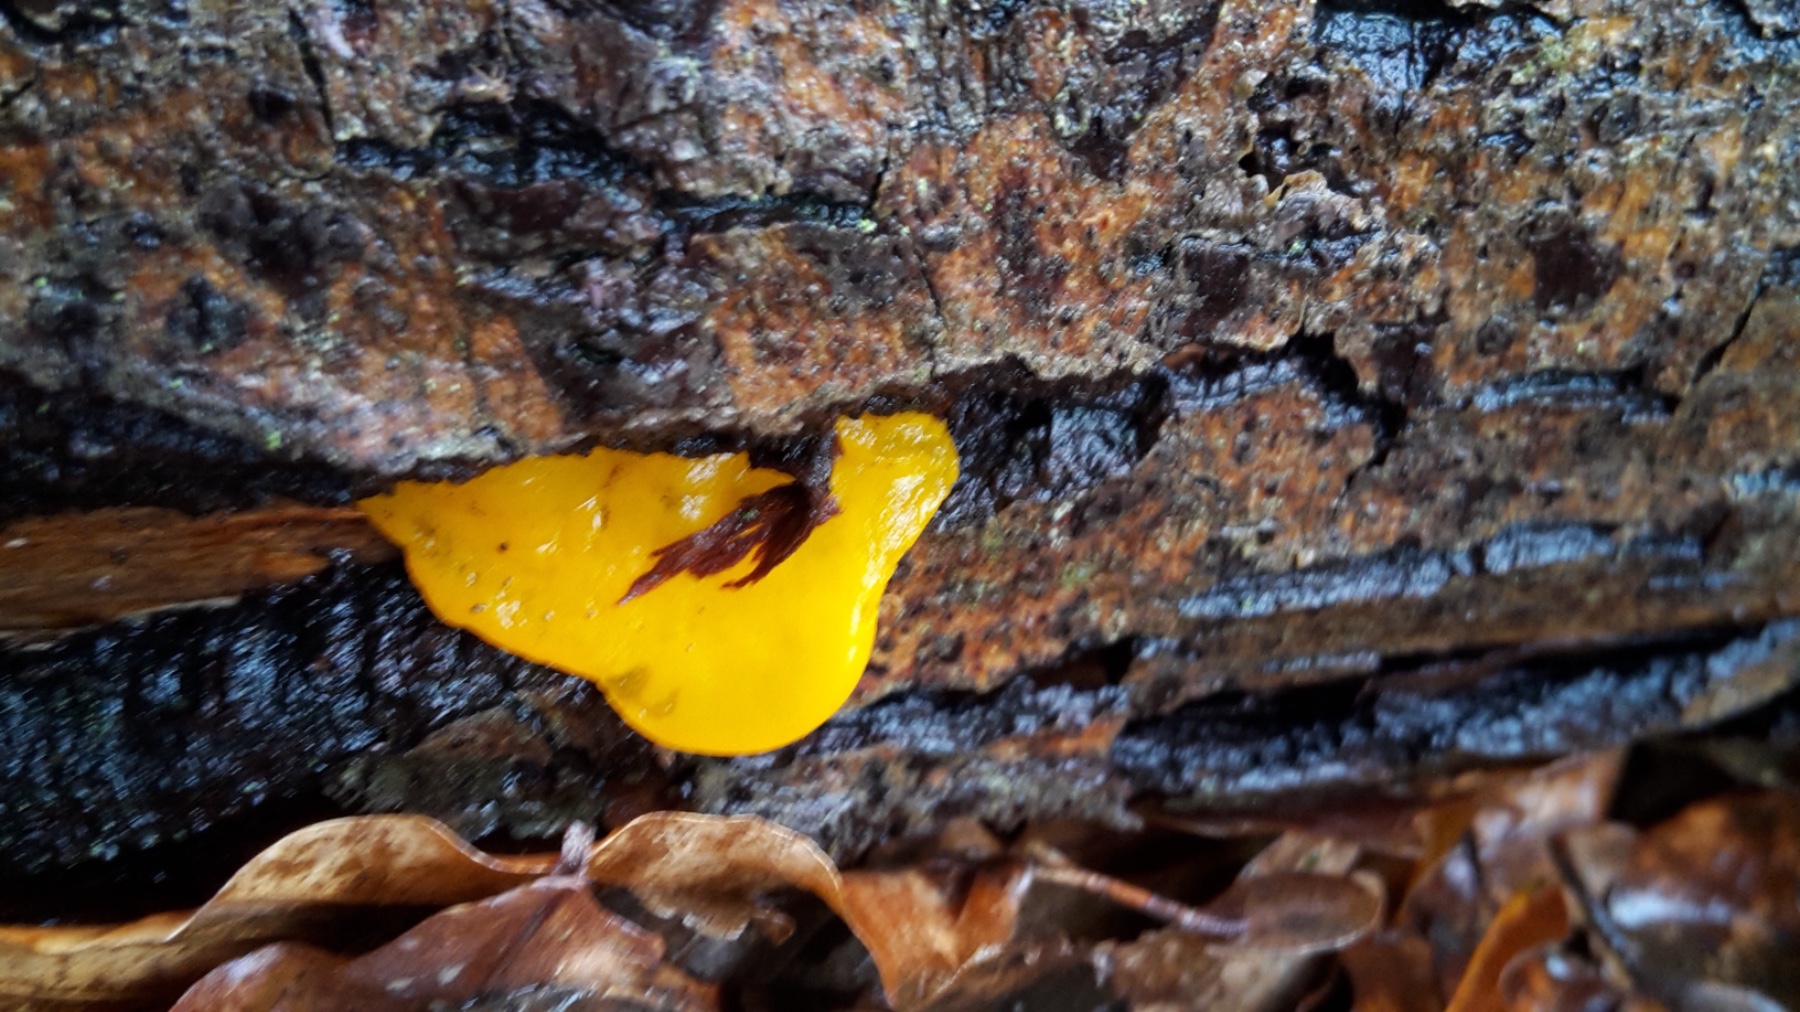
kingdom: Fungi
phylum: Basidiomycota
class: Tremellomycetes
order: Tremellales
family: Tremellaceae
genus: Tremella
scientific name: Tremella mesenterica
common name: gul bævresvamp
